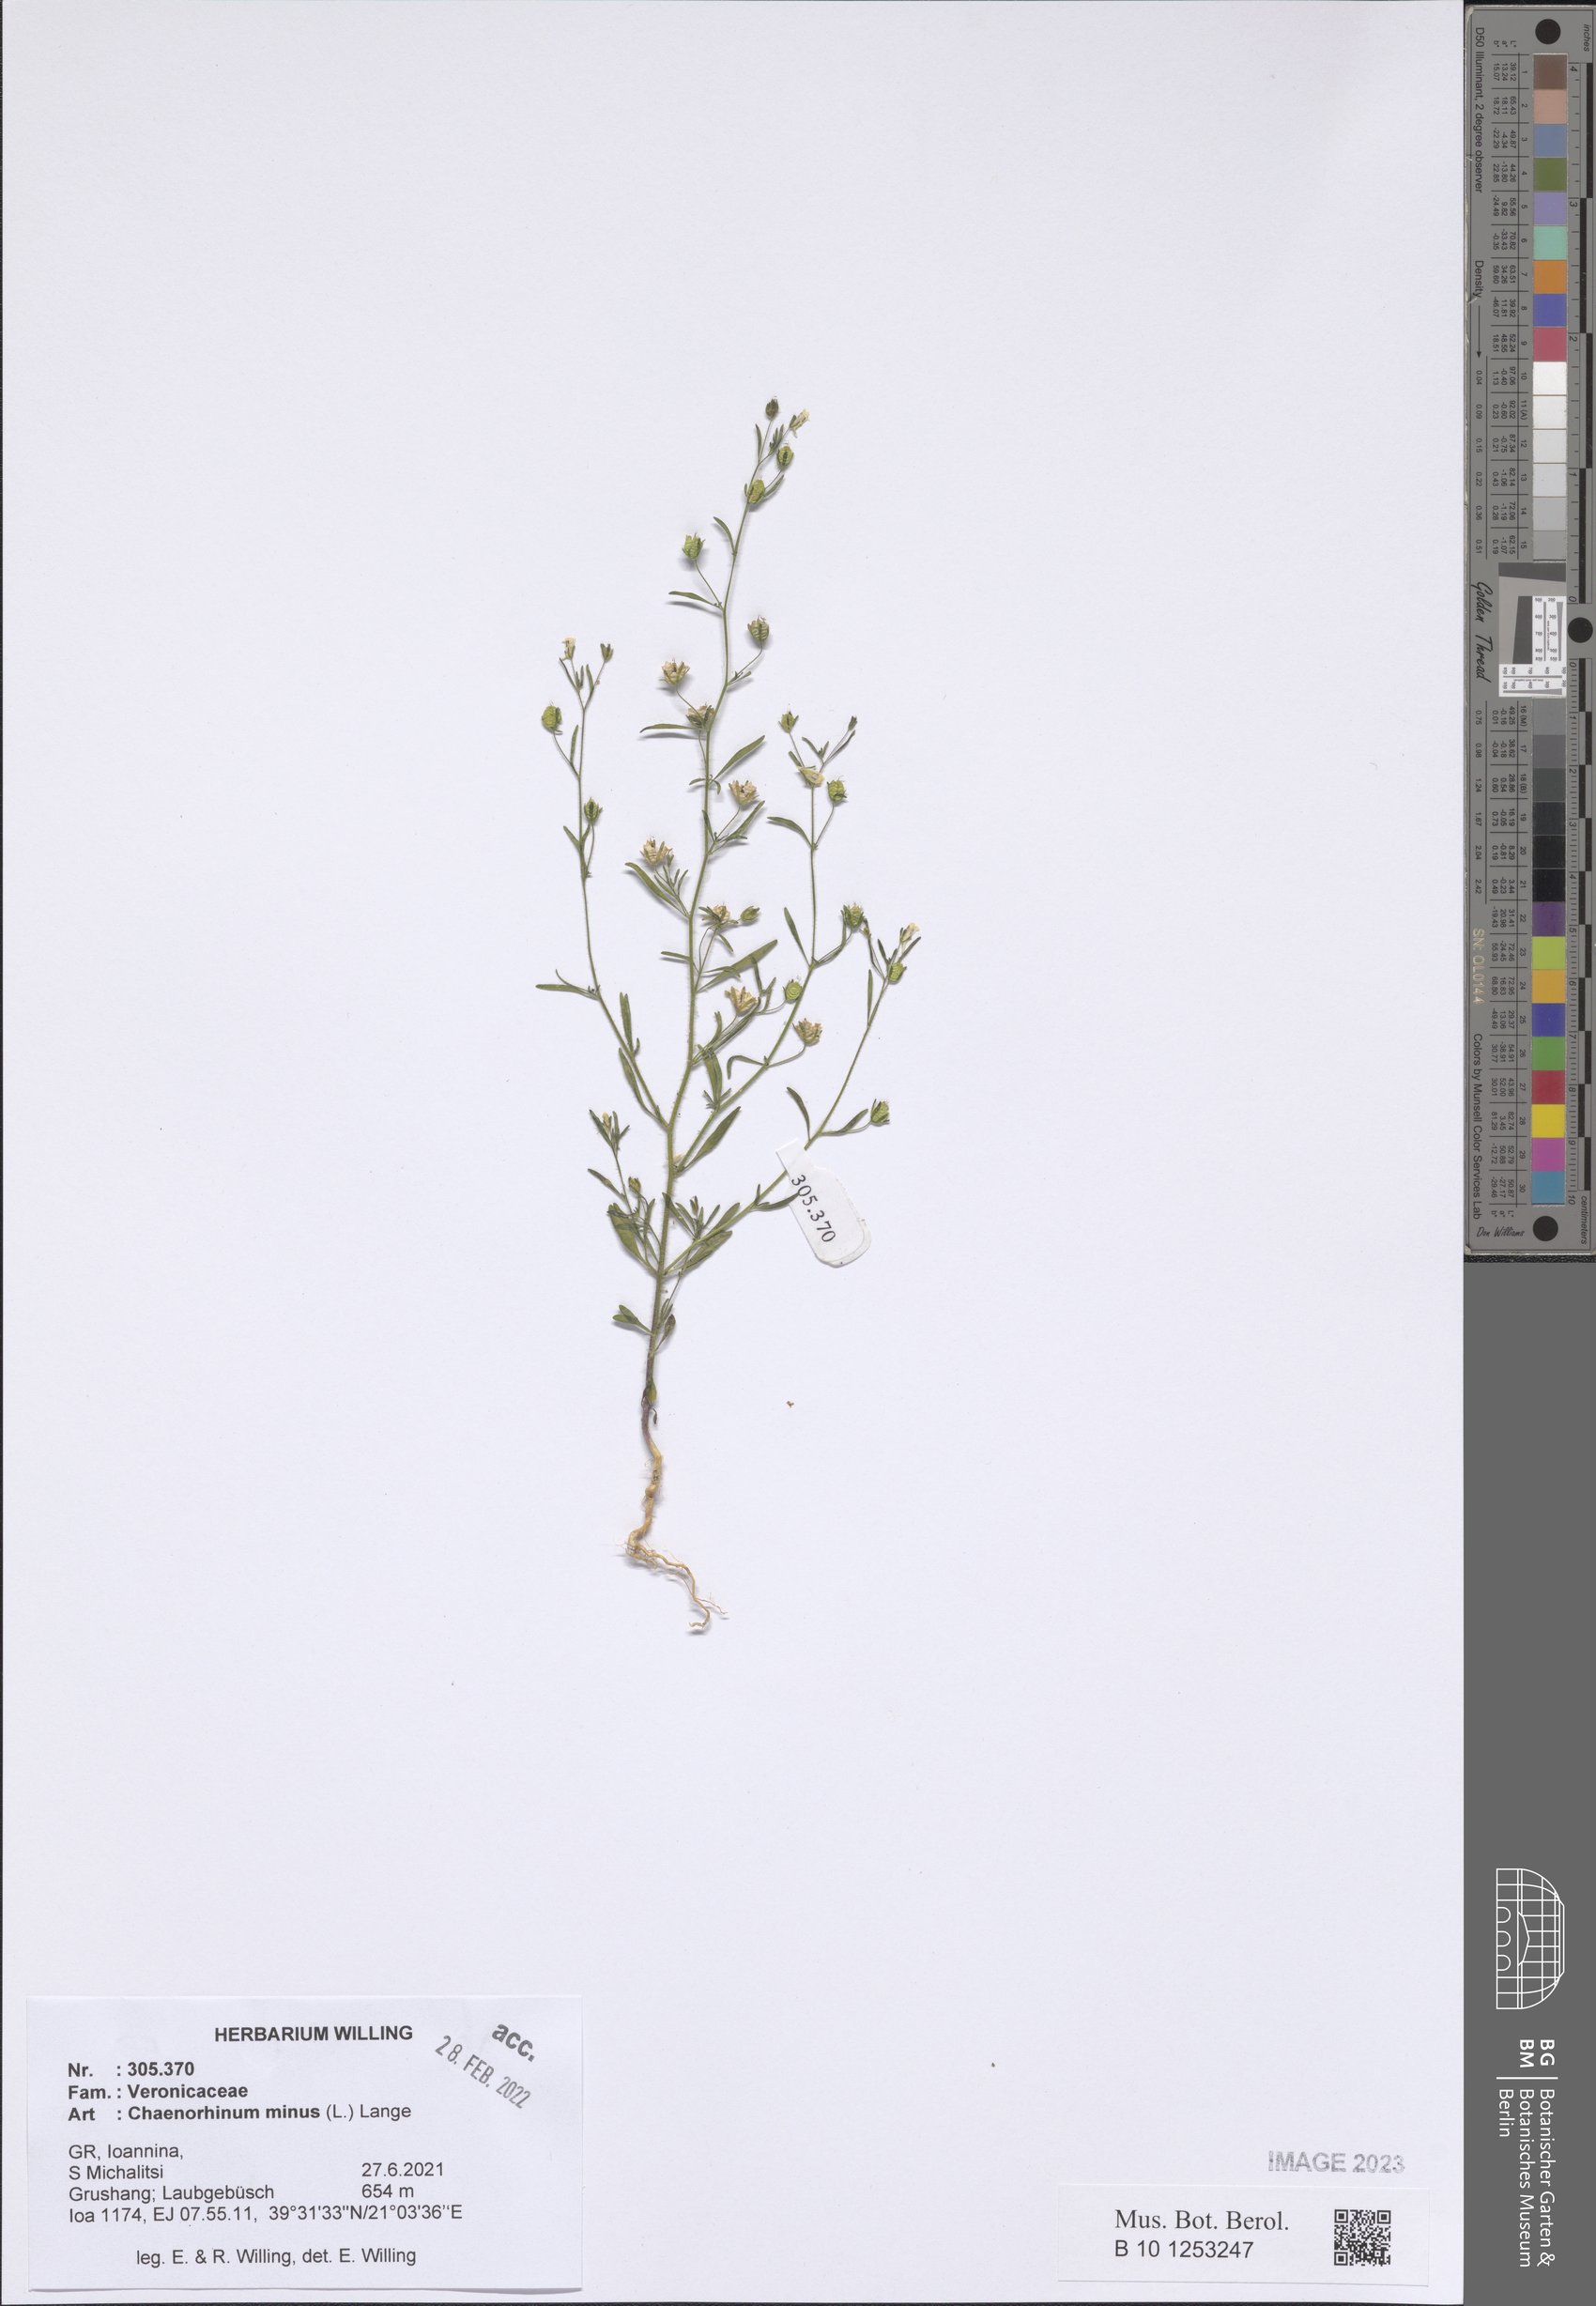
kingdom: Plantae
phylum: Tracheophyta
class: Magnoliopsida
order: Lamiales
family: Plantaginaceae
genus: Chaenorhinum
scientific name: Chaenorhinum minus
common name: Dwarf snapdragon
